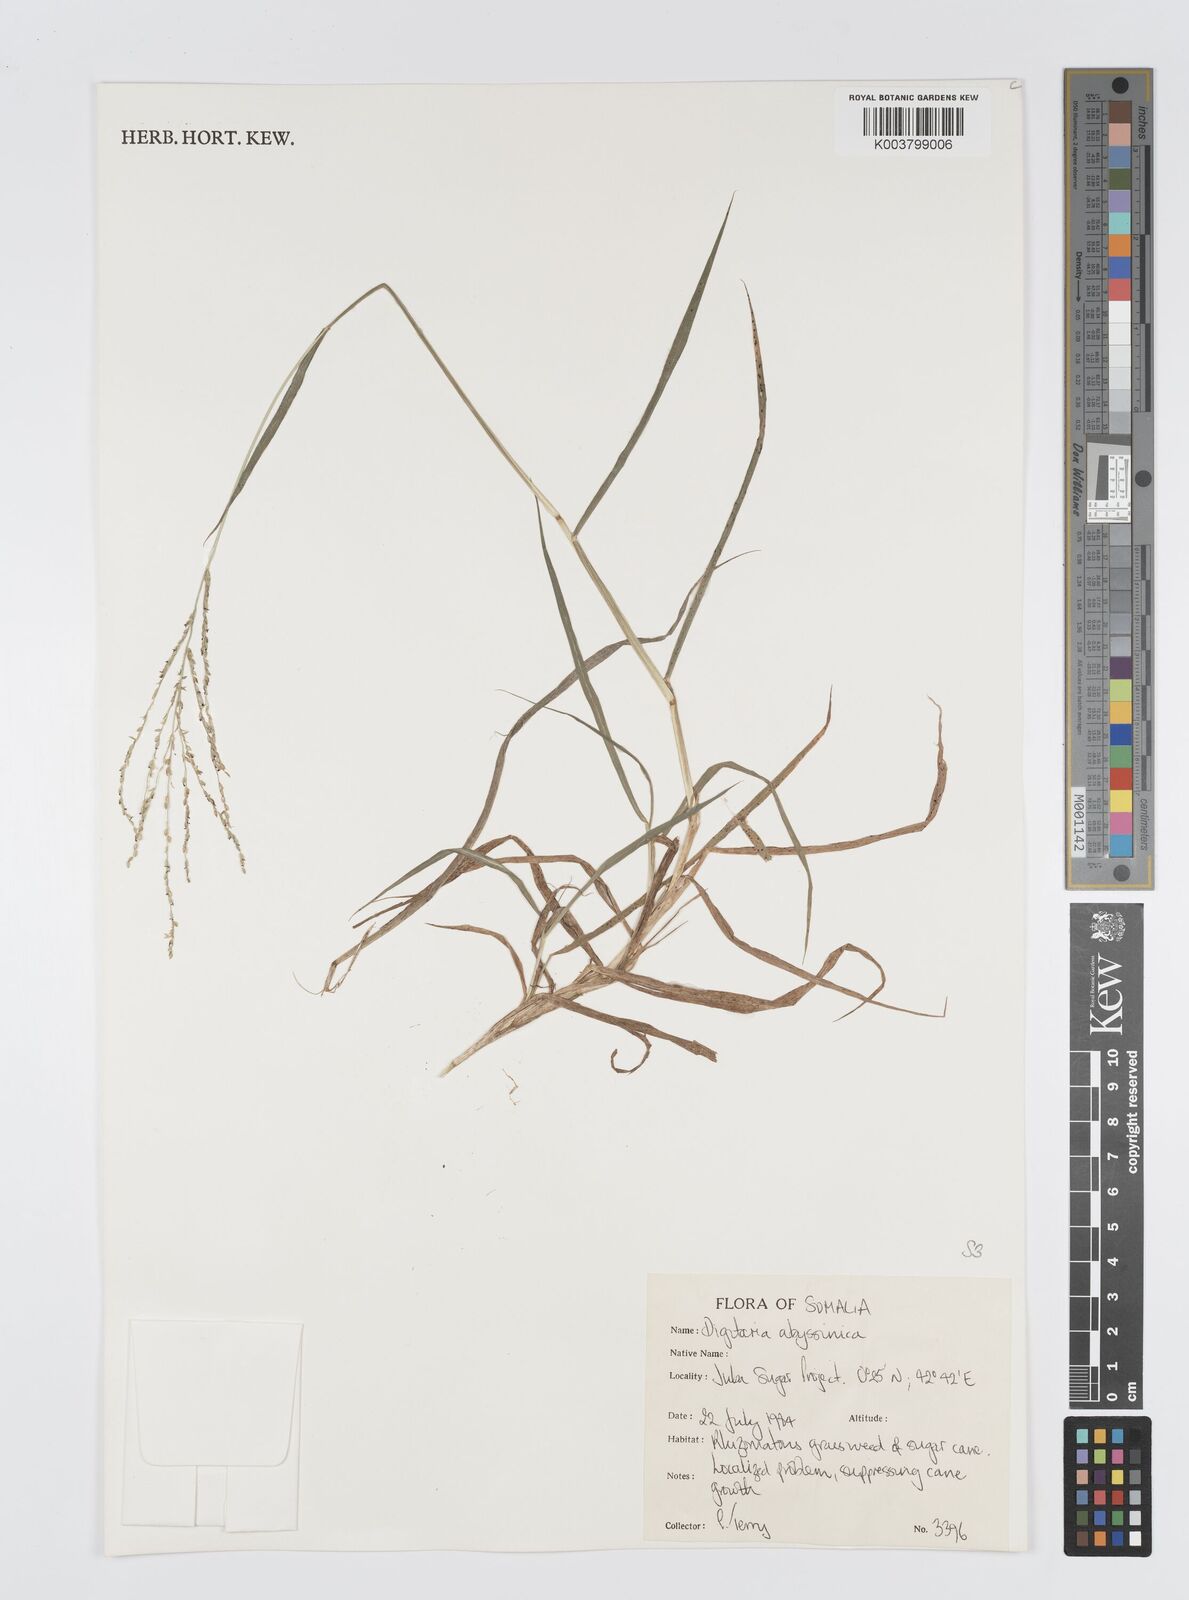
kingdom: Plantae
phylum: Tracheophyta
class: Liliopsida
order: Poales
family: Poaceae
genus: Digitaria
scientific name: Digitaria abyssinica
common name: African couchgrass
